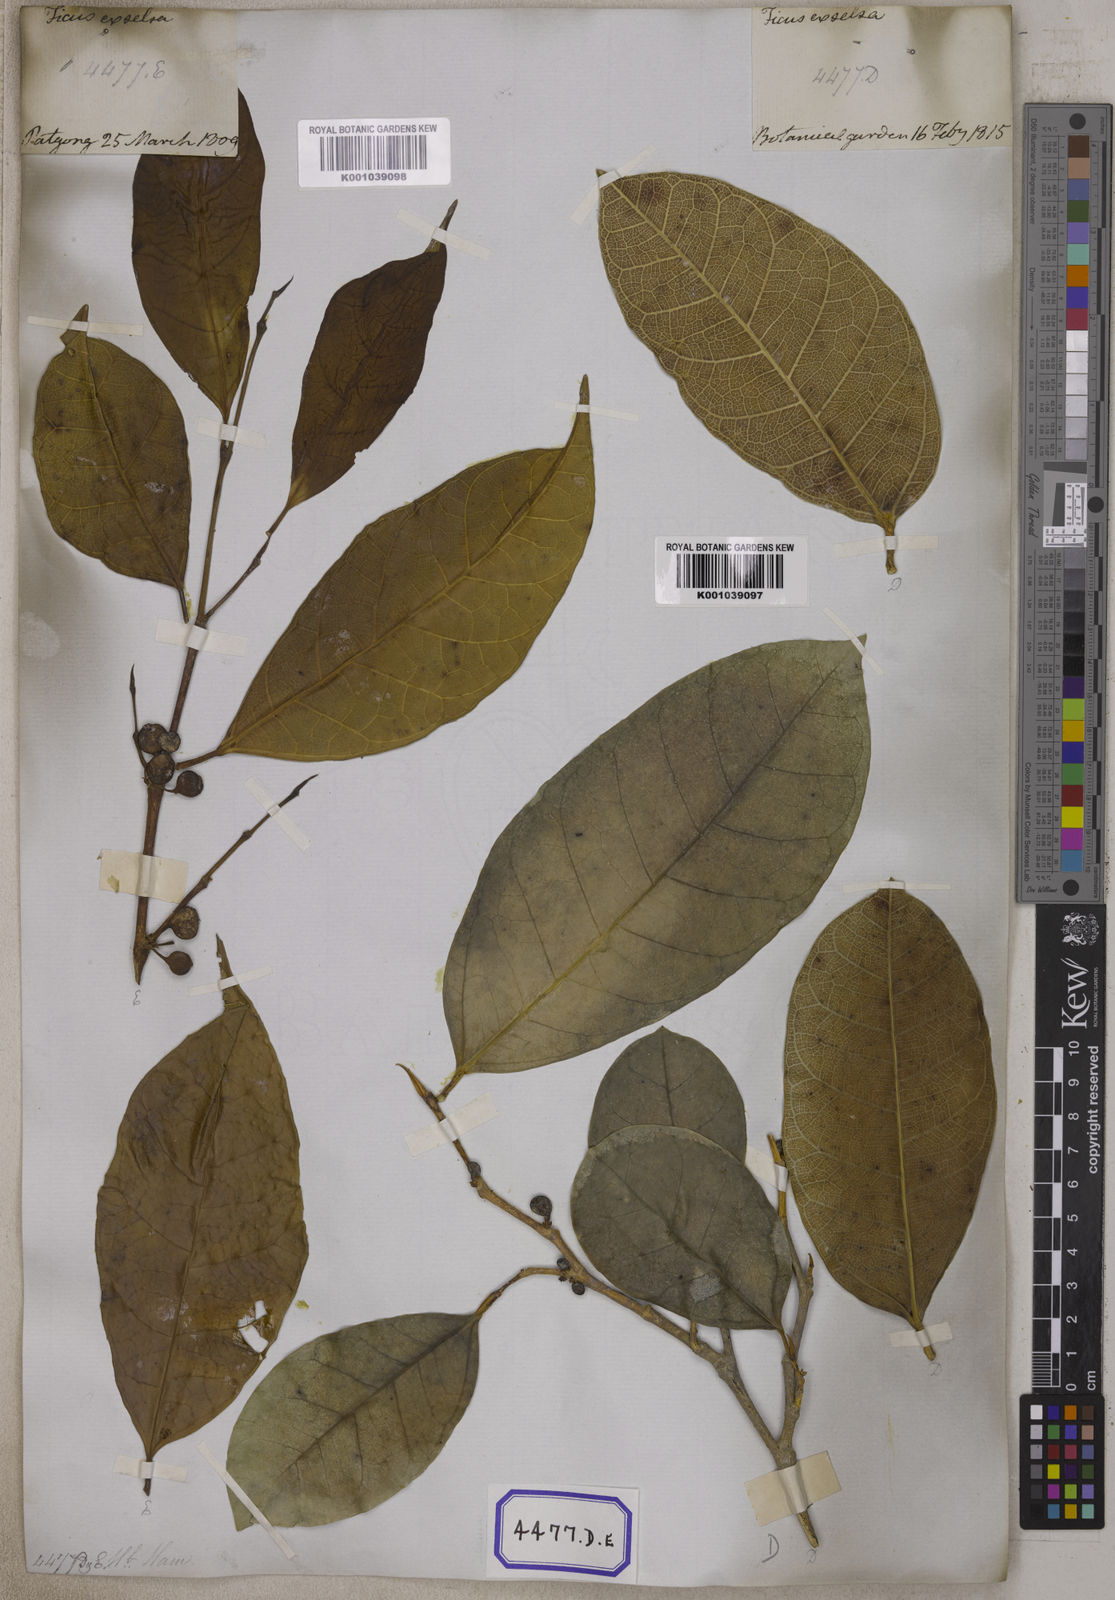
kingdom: Plantae
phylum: Tracheophyta
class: Magnoliopsida
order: Rosales
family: Moraceae
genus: Ficus
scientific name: Ficus tinctoria
